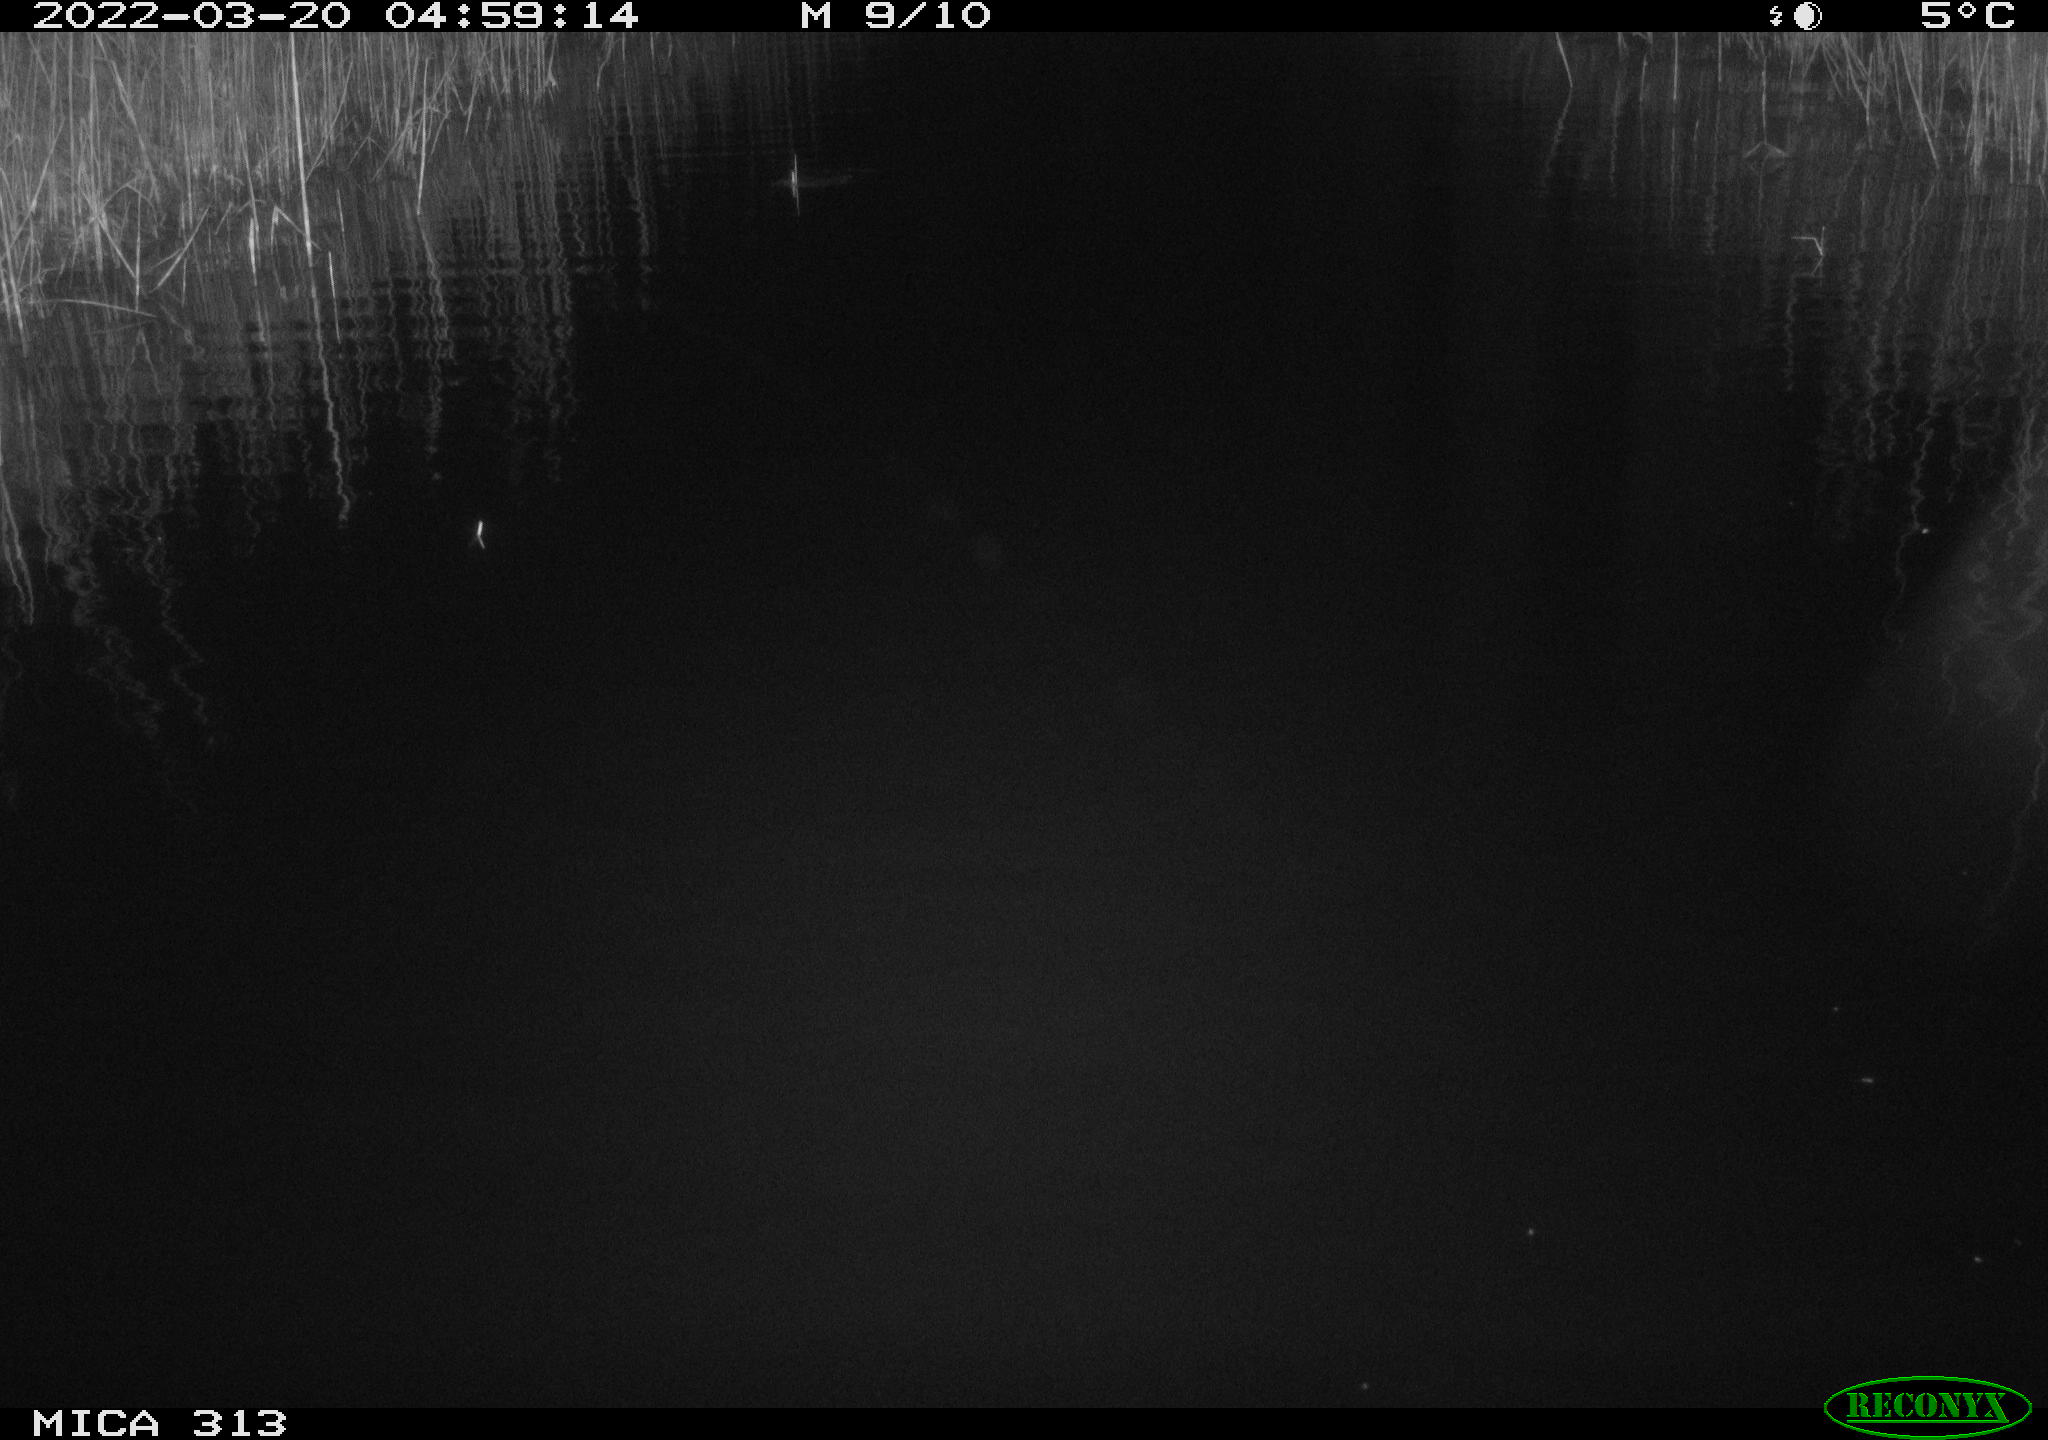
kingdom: Animalia
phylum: Chordata
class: Aves
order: Gruiformes
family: Rallidae
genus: Gallinula
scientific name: Gallinula chloropus
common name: Common moorhen
